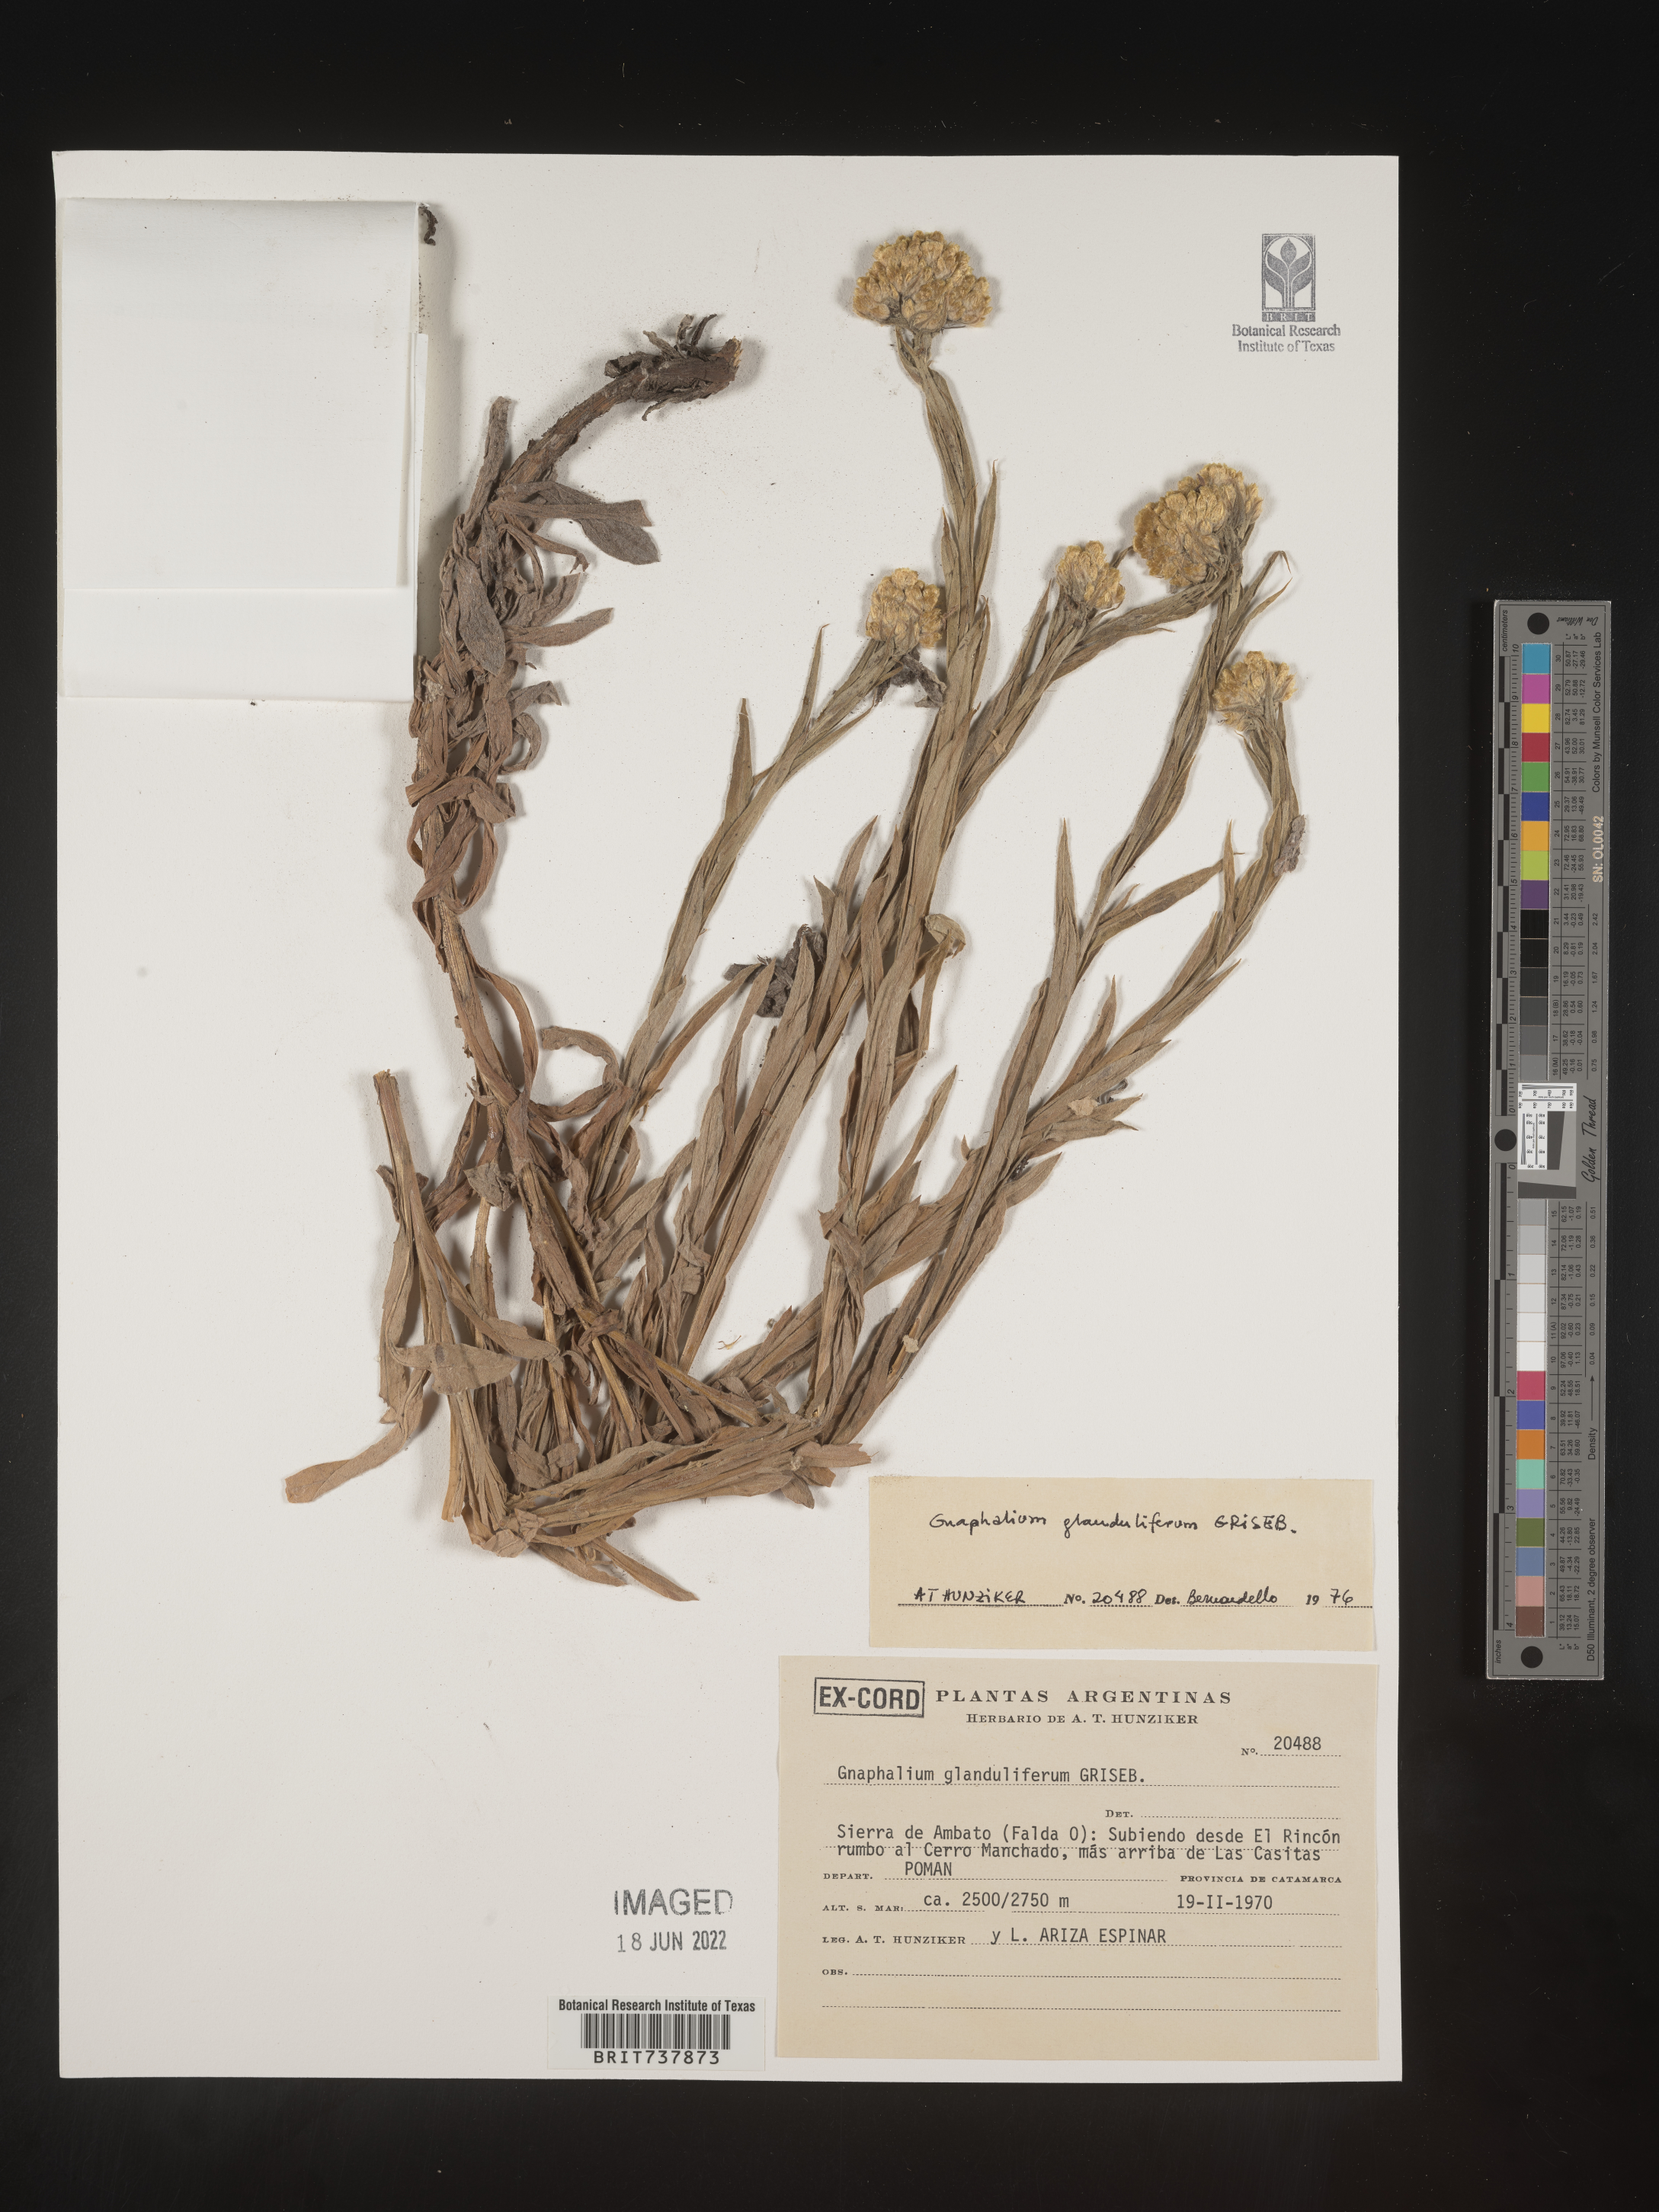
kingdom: Plantae
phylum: Tracheophyta
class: Magnoliopsida
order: Asterales
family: Asteraceae
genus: Pseudognaphalium
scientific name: Pseudognaphalium
